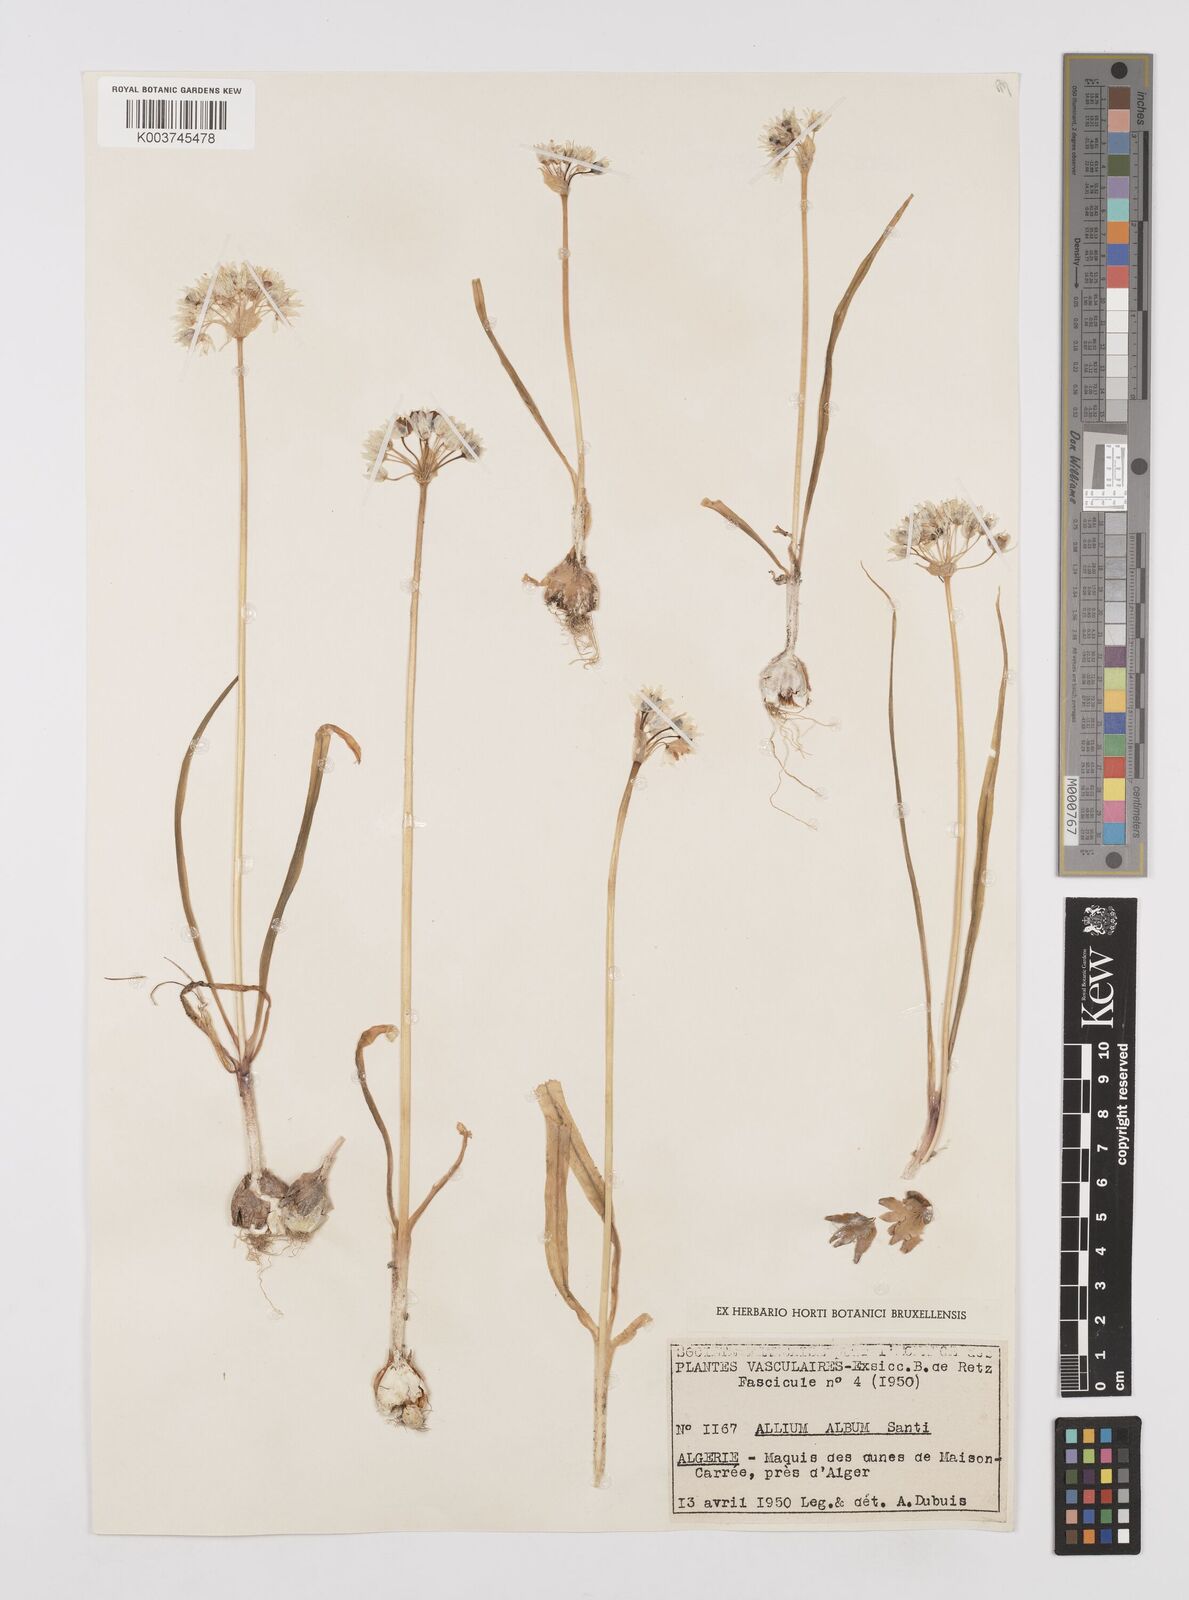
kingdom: Plantae
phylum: Tracheophyta
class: Liliopsida
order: Asparagales
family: Amaryllidaceae
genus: Allium
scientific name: Allium subvillosum
